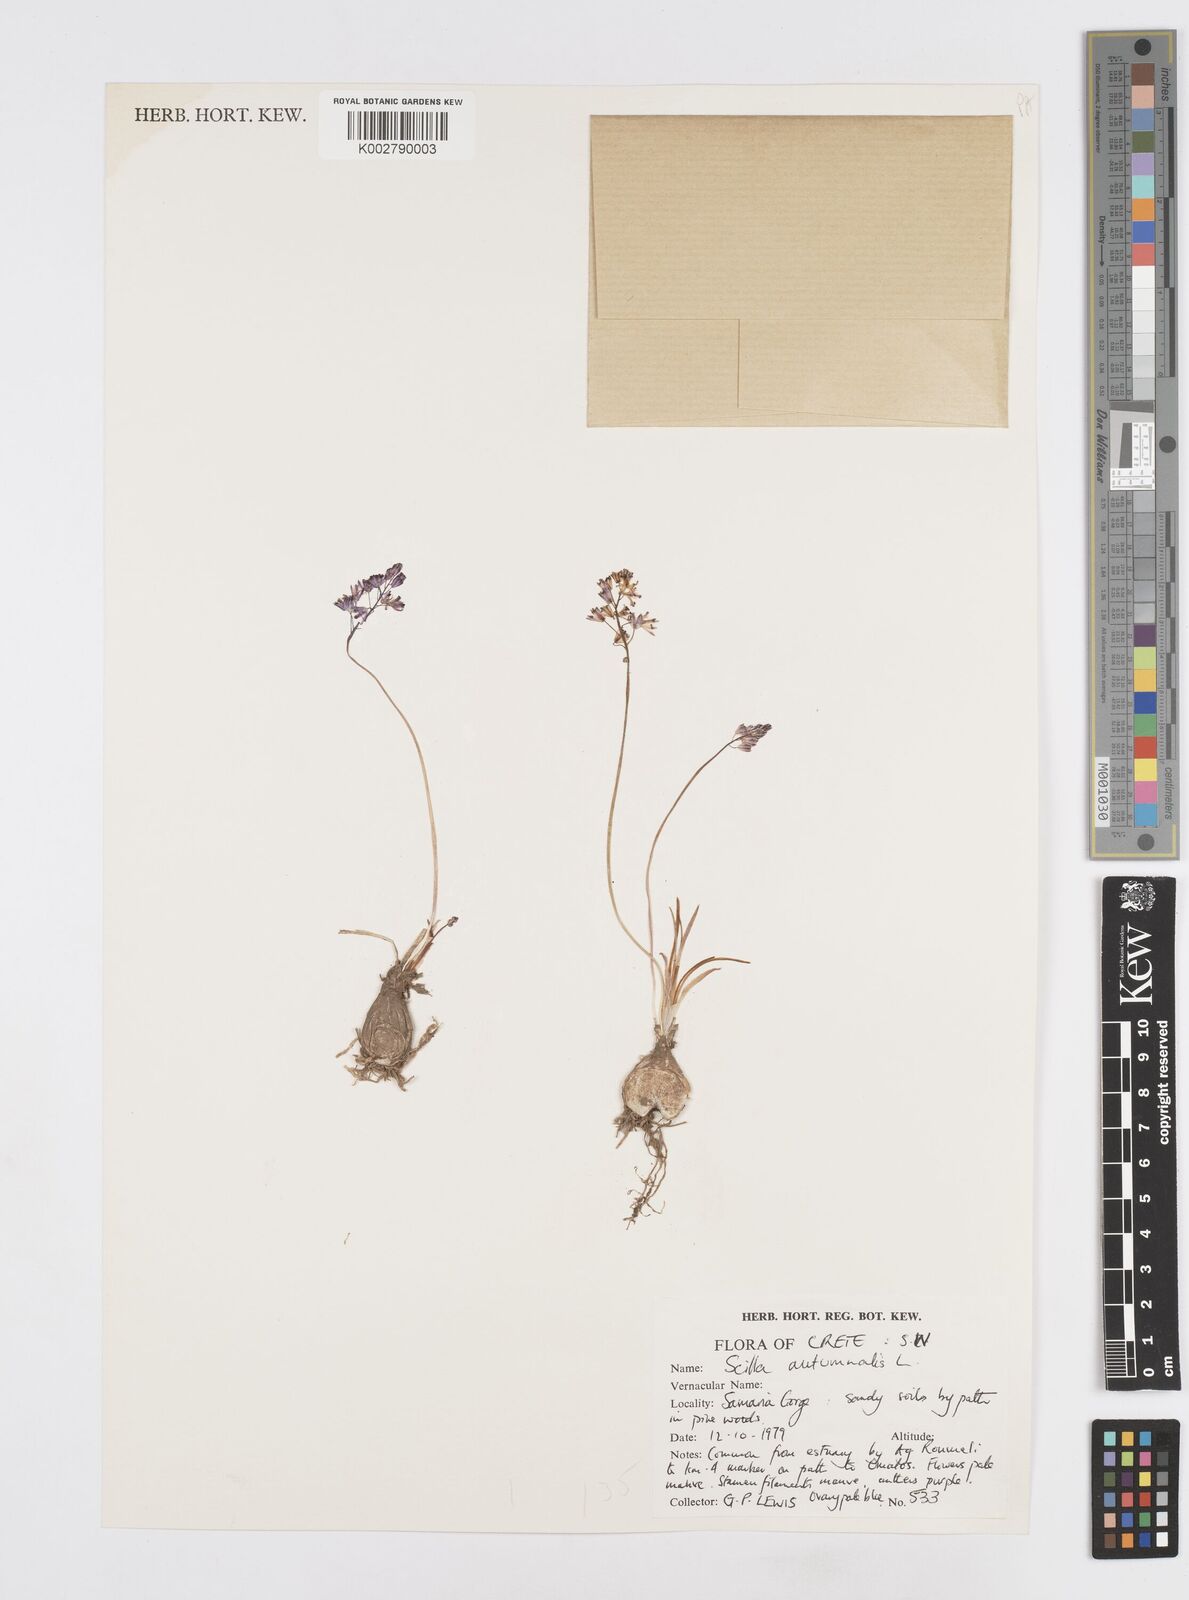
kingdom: Plantae
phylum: Tracheophyta
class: Liliopsida
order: Asparagales
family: Asparagaceae
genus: Prospero
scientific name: Prospero autumnale
